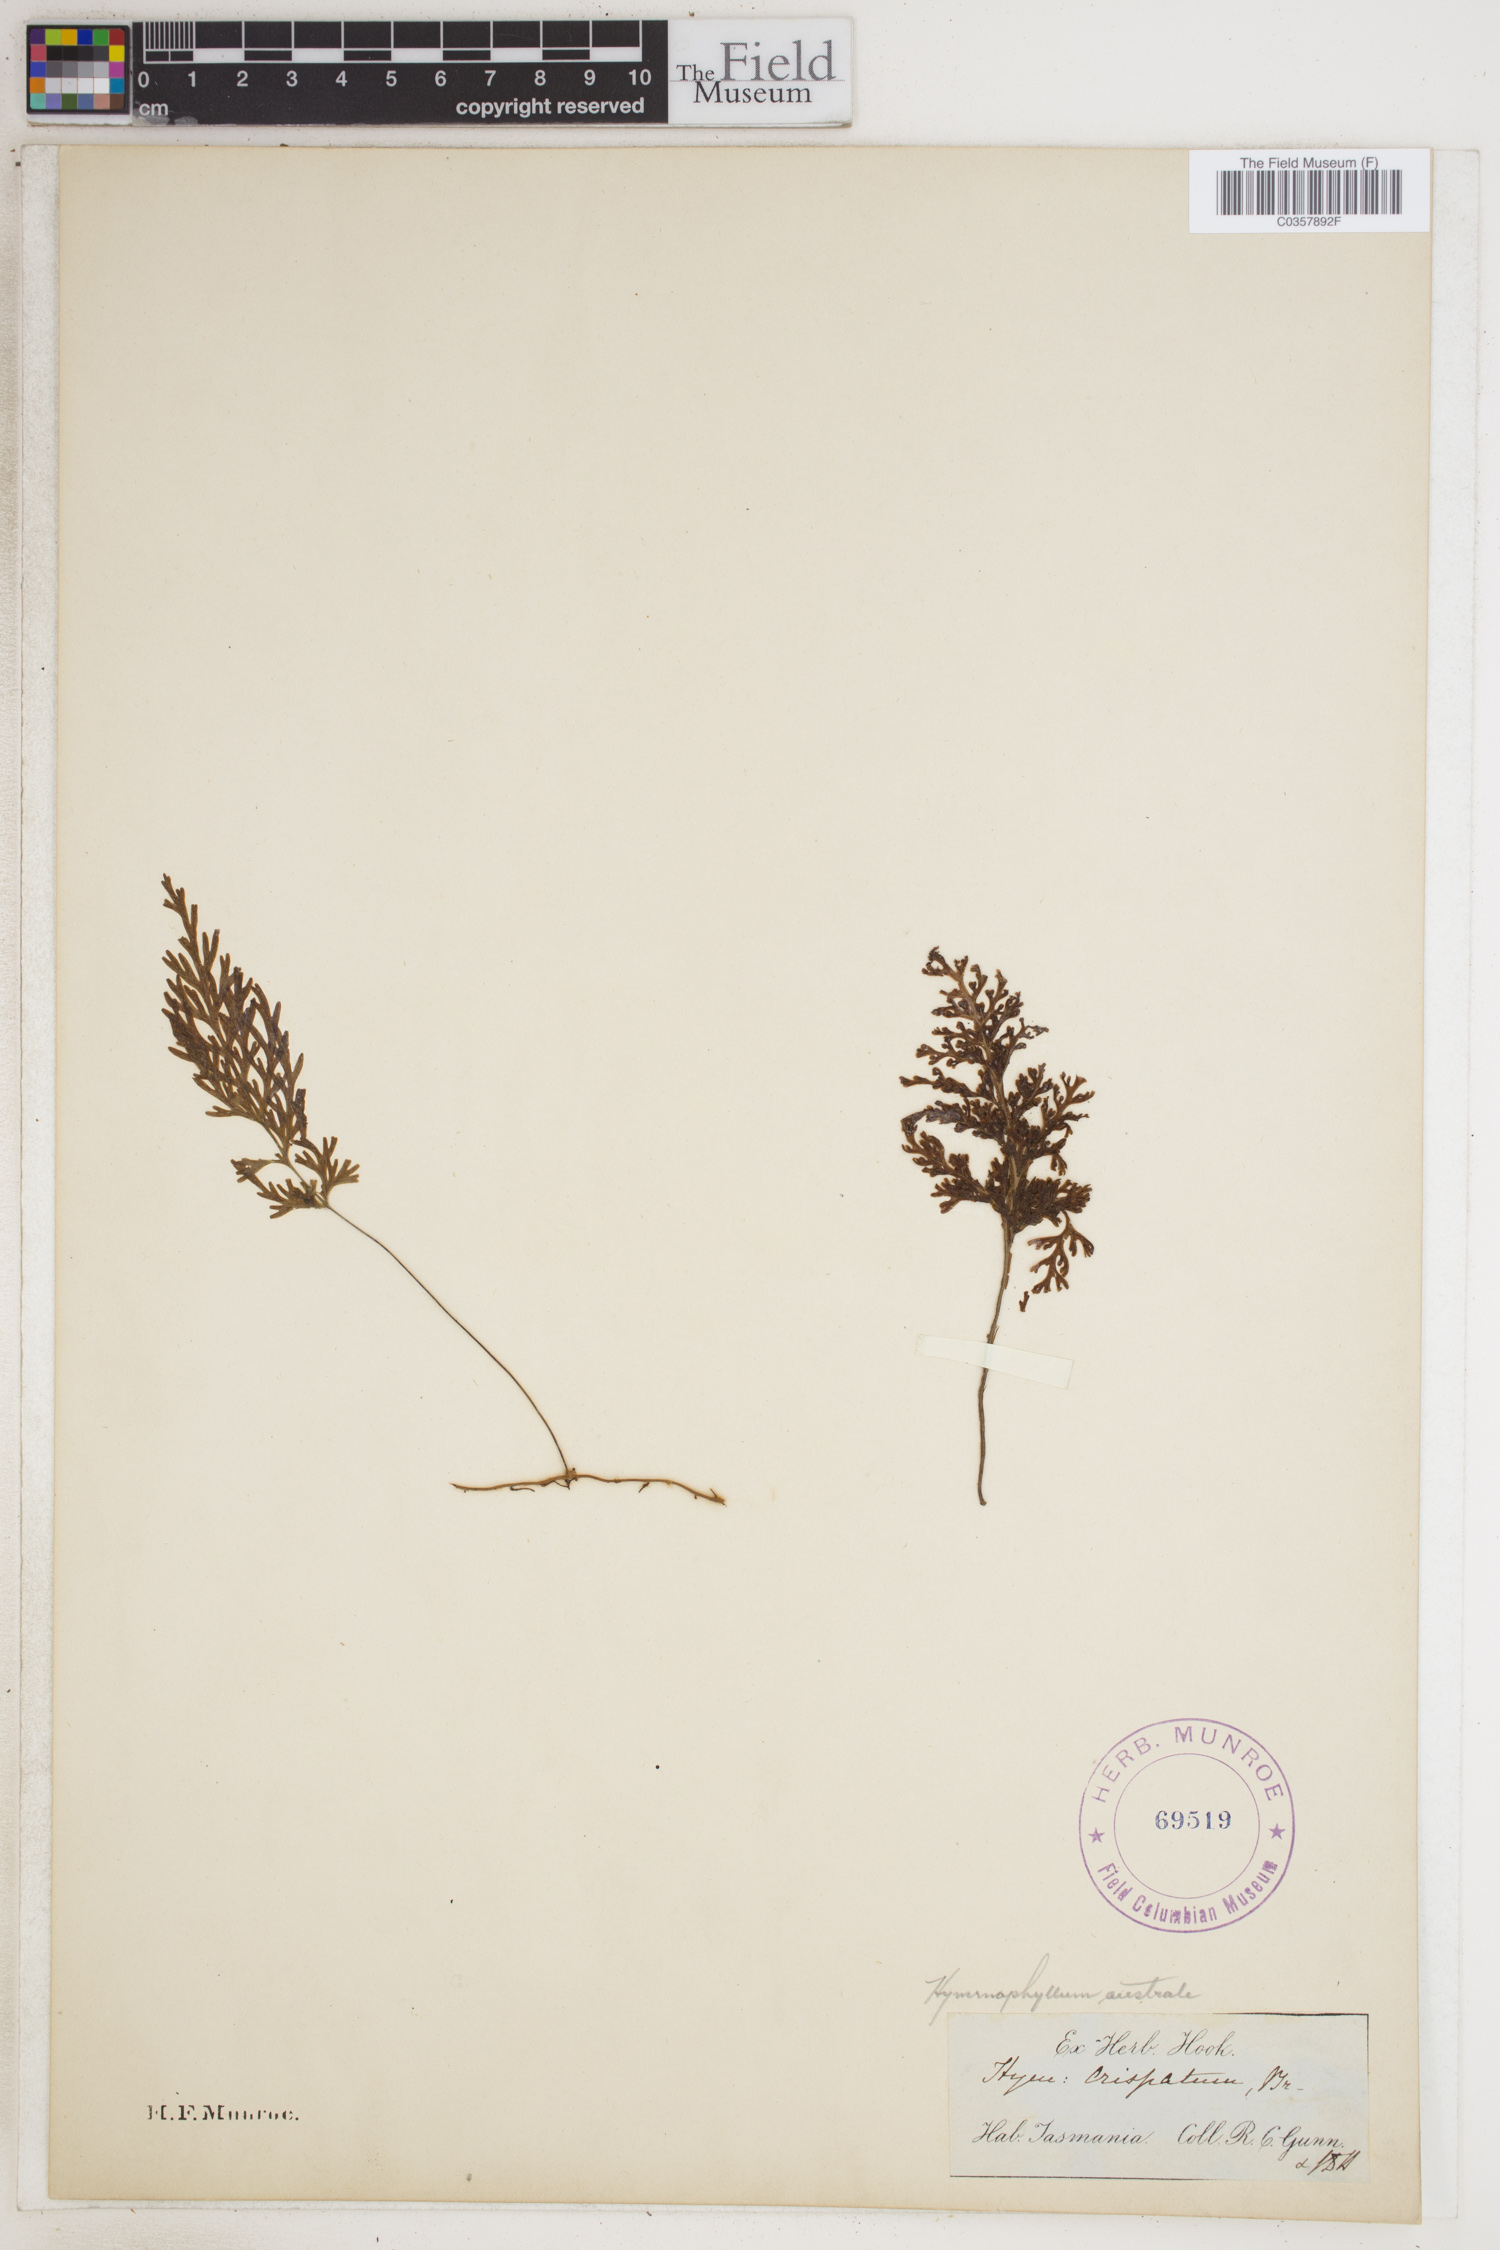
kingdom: Plantae
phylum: Tracheophyta
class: Polypodiopsida
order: Hymenophyllales
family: Hymenophyllaceae
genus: Hymenophyllum
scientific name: Hymenophyllum australe
